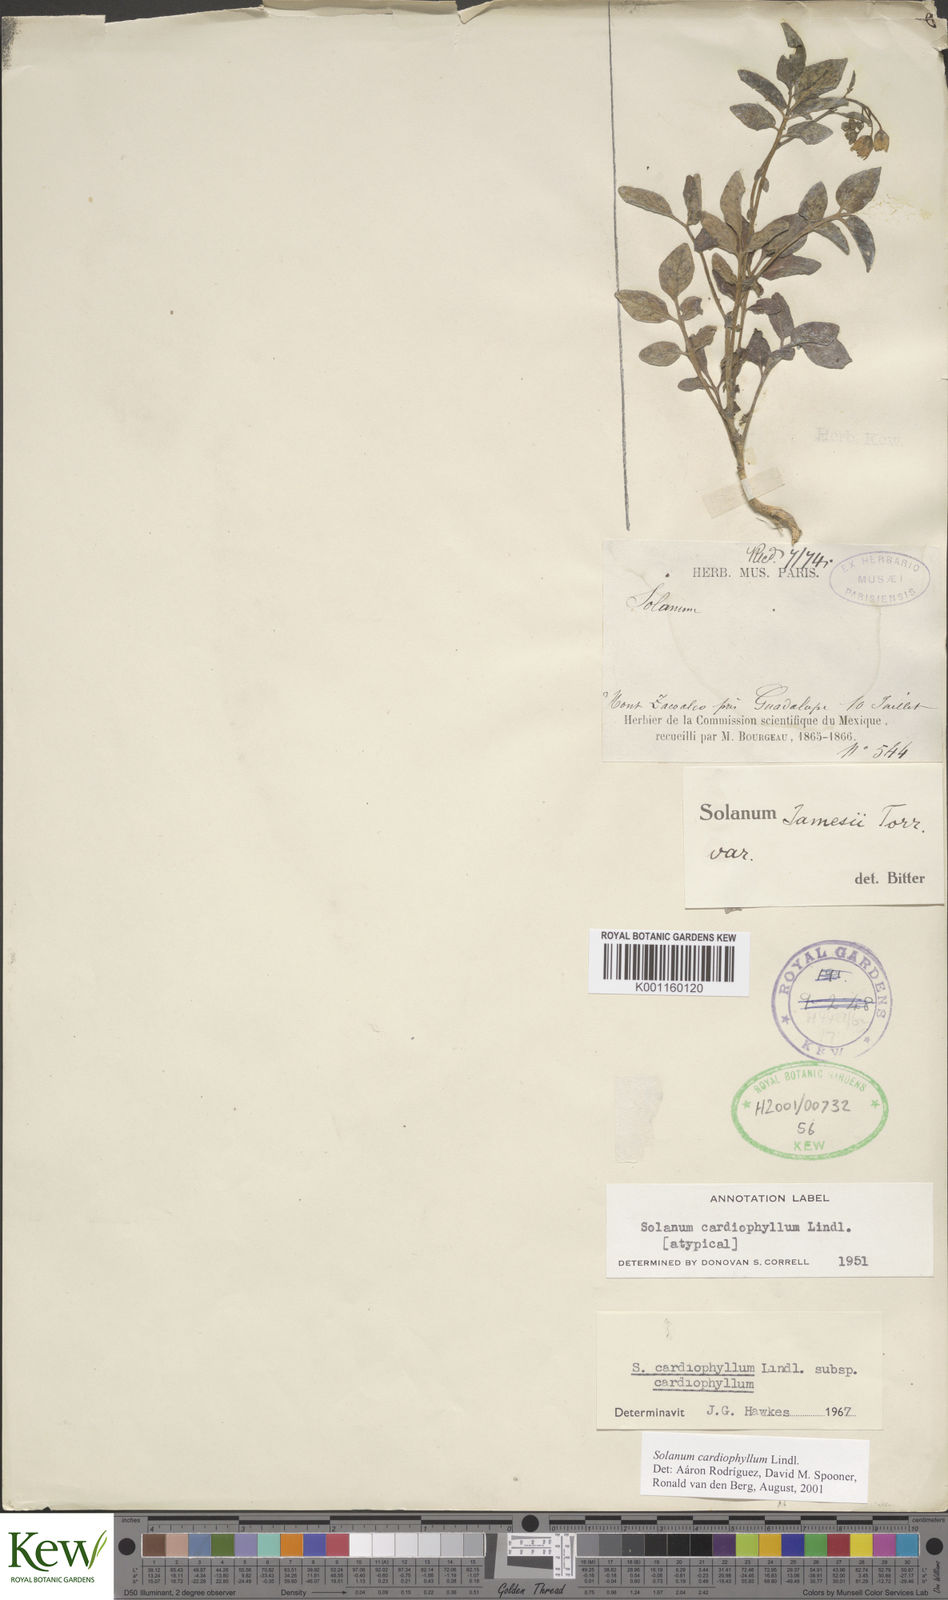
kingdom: Plantae
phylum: Tracheophyta
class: Magnoliopsida
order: Solanales
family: Solanaceae
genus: Solanum
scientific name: Solanum cardiophyllum
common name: Heartleaf horsenettle
